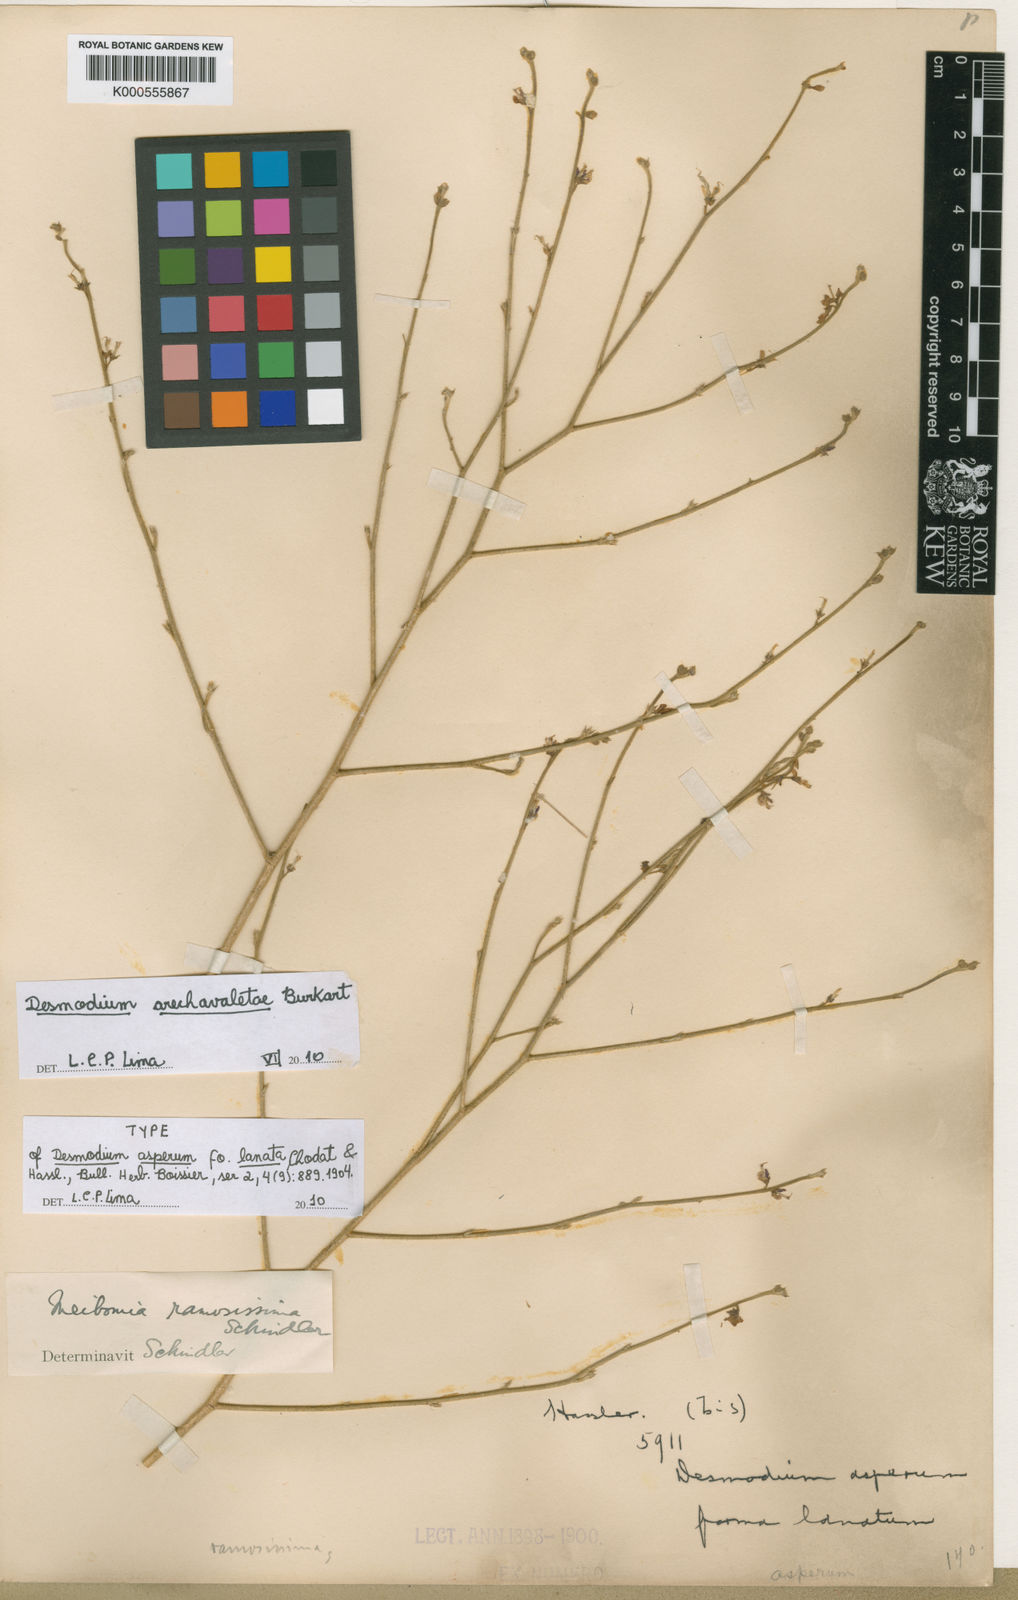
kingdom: Plantae
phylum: Tracheophyta
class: Magnoliopsida
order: Fabales
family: Fabaceae
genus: Desmodium
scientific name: Desmodium arechavaletae
